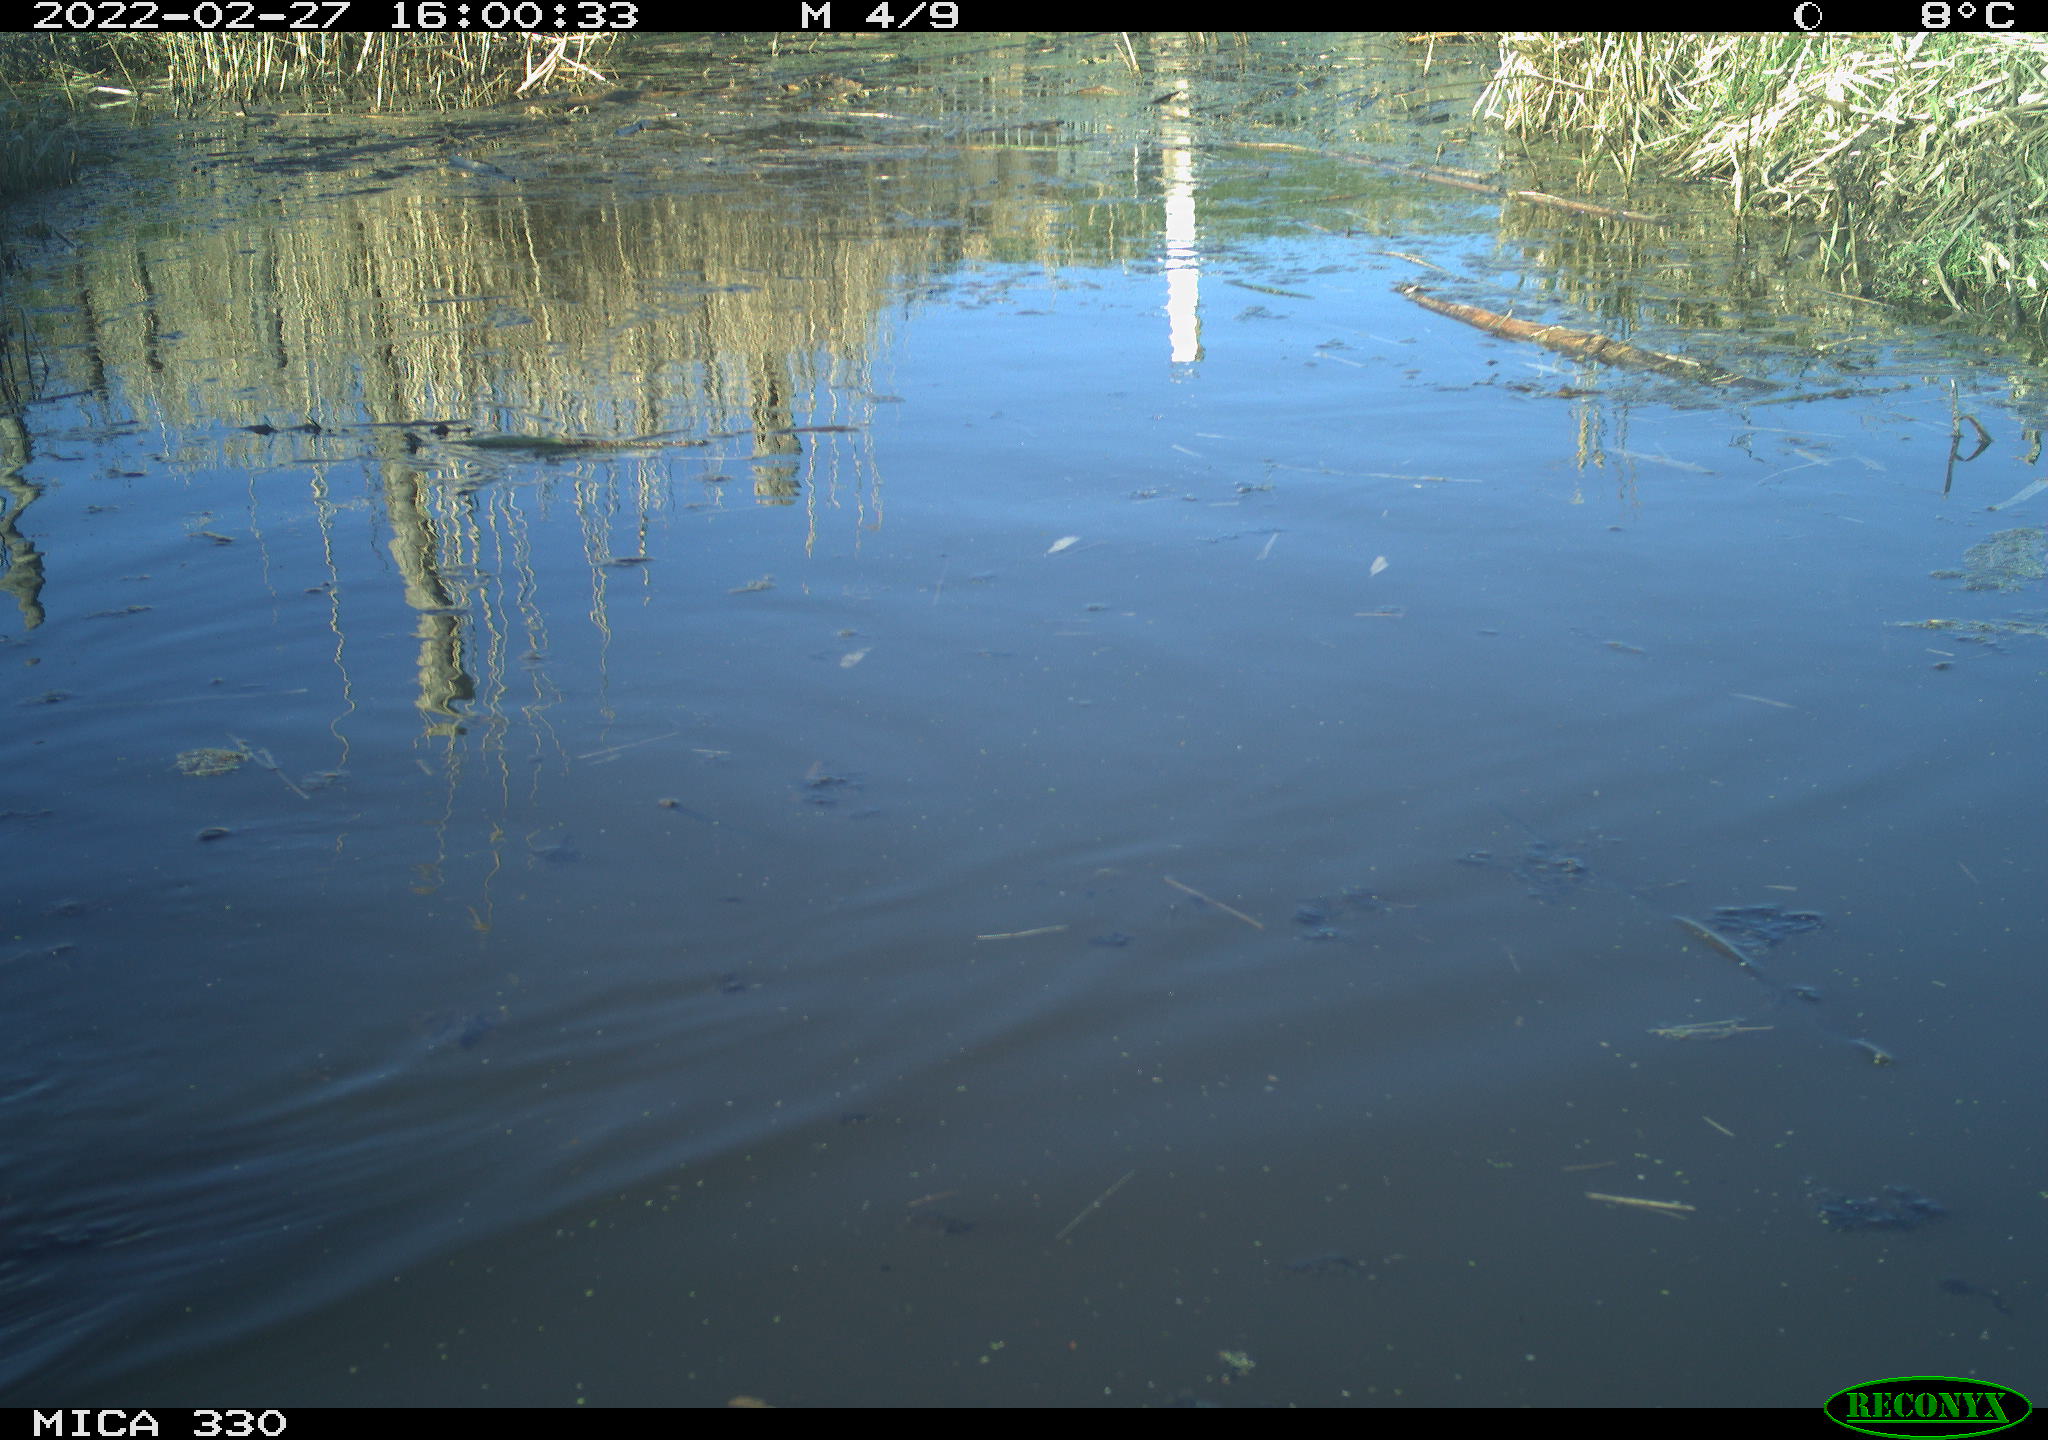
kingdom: Animalia
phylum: Chordata
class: Aves
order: Gruiformes
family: Rallidae
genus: Fulica
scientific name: Fulica atra
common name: Eurasian coot
